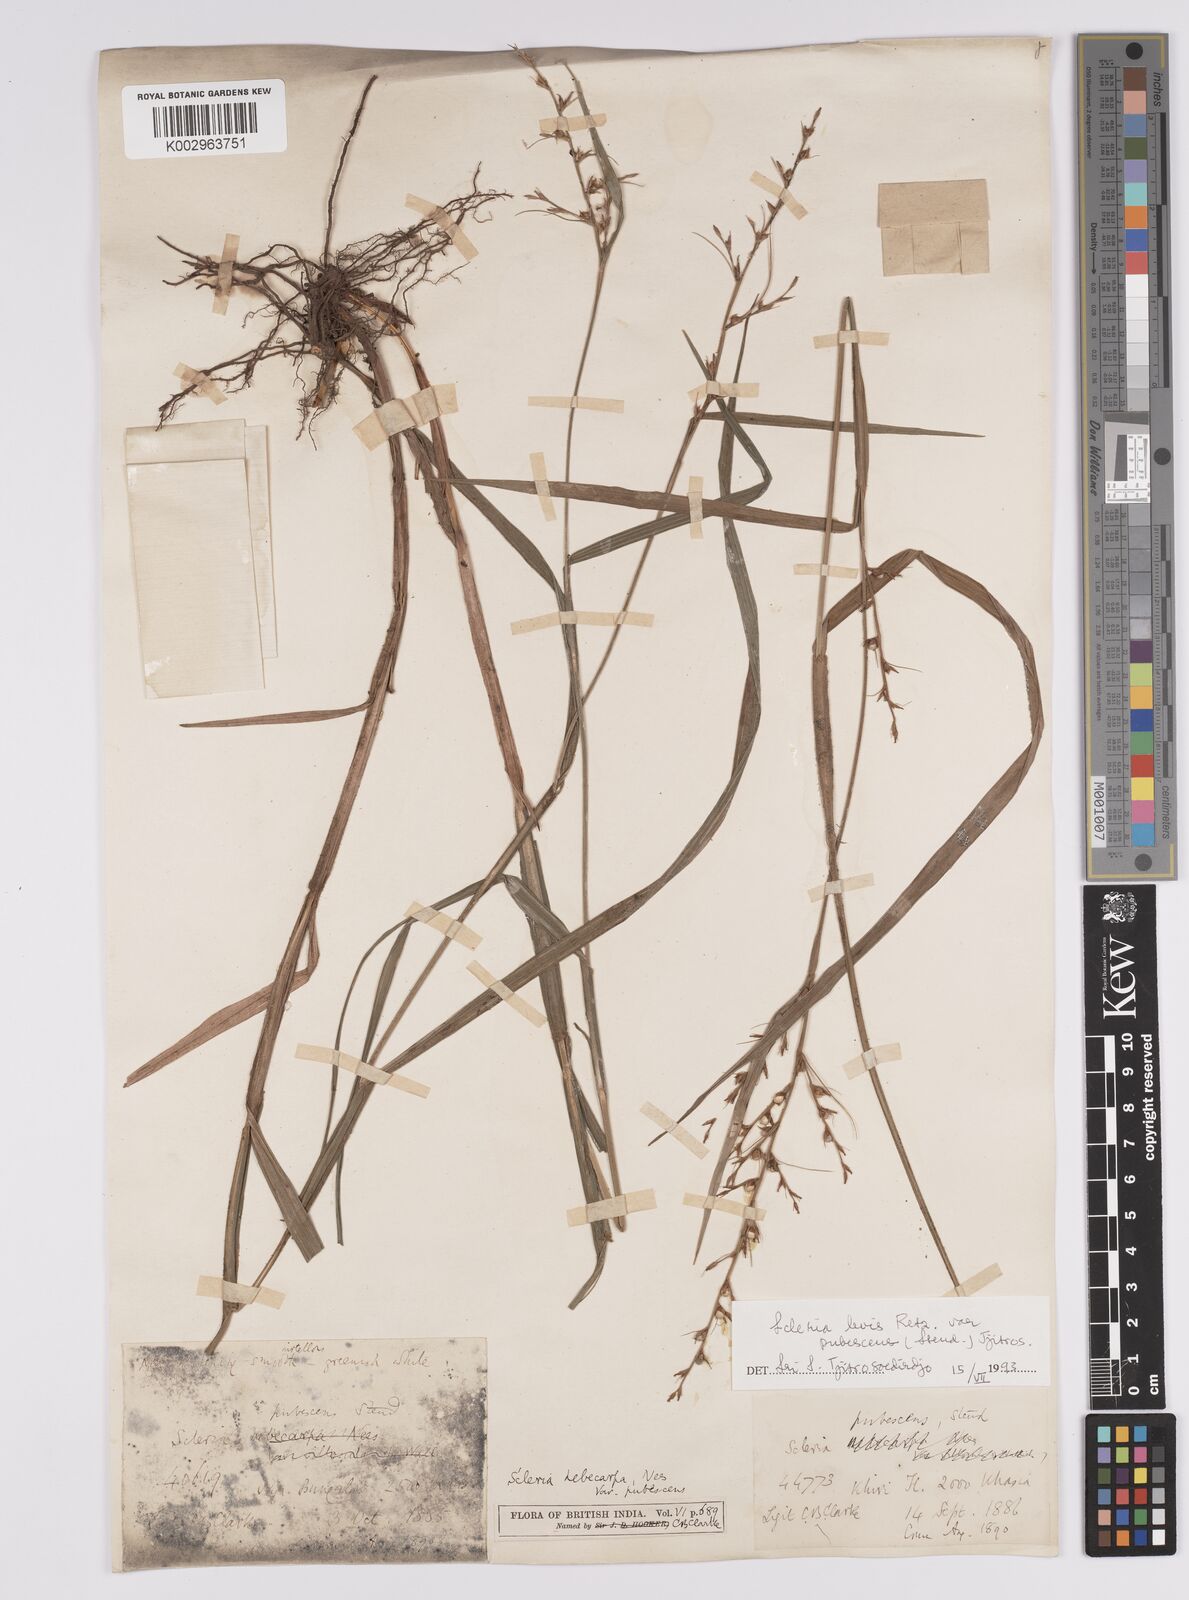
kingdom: Plantae
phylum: Tracheophyta
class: Liliopsida
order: Poales
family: Cyperaceae
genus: Scleria
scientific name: Scleria levis
